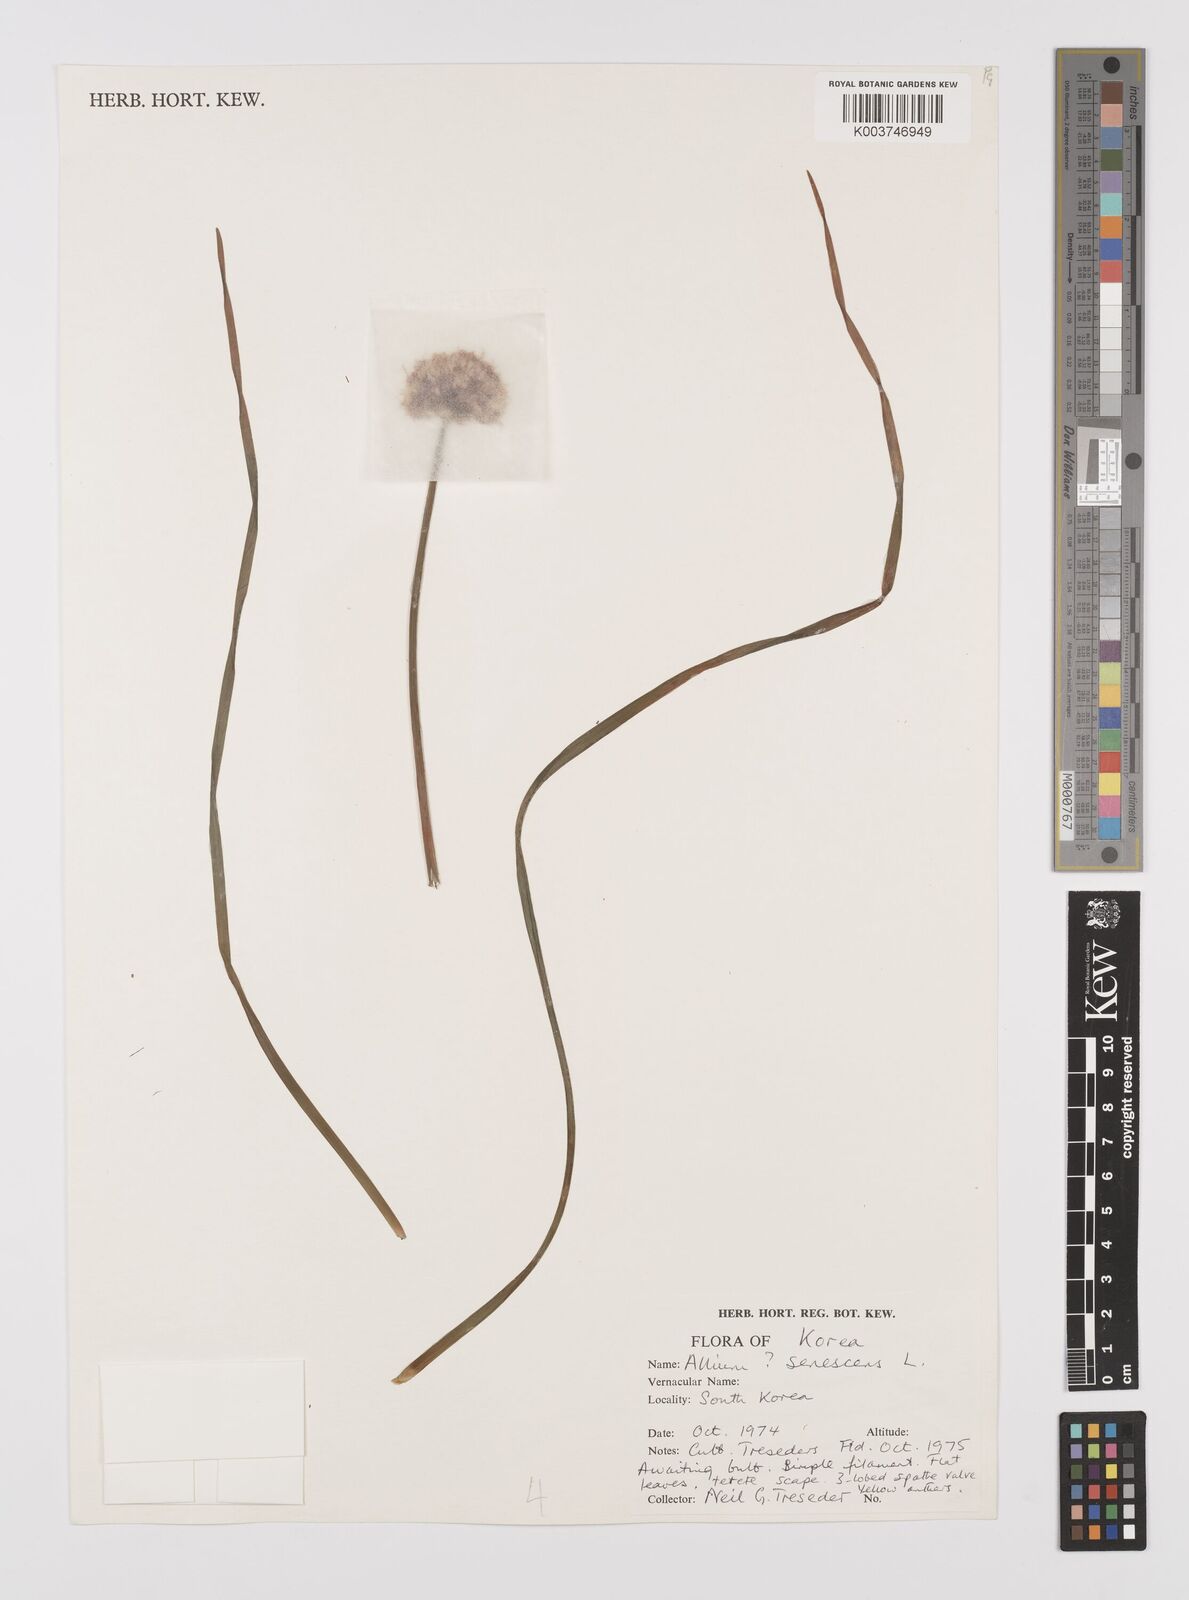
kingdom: Plantae
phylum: Tracheophyta
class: Liliopsida
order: Asparagales
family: Amaryllidaceae
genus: Allium
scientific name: Allium
